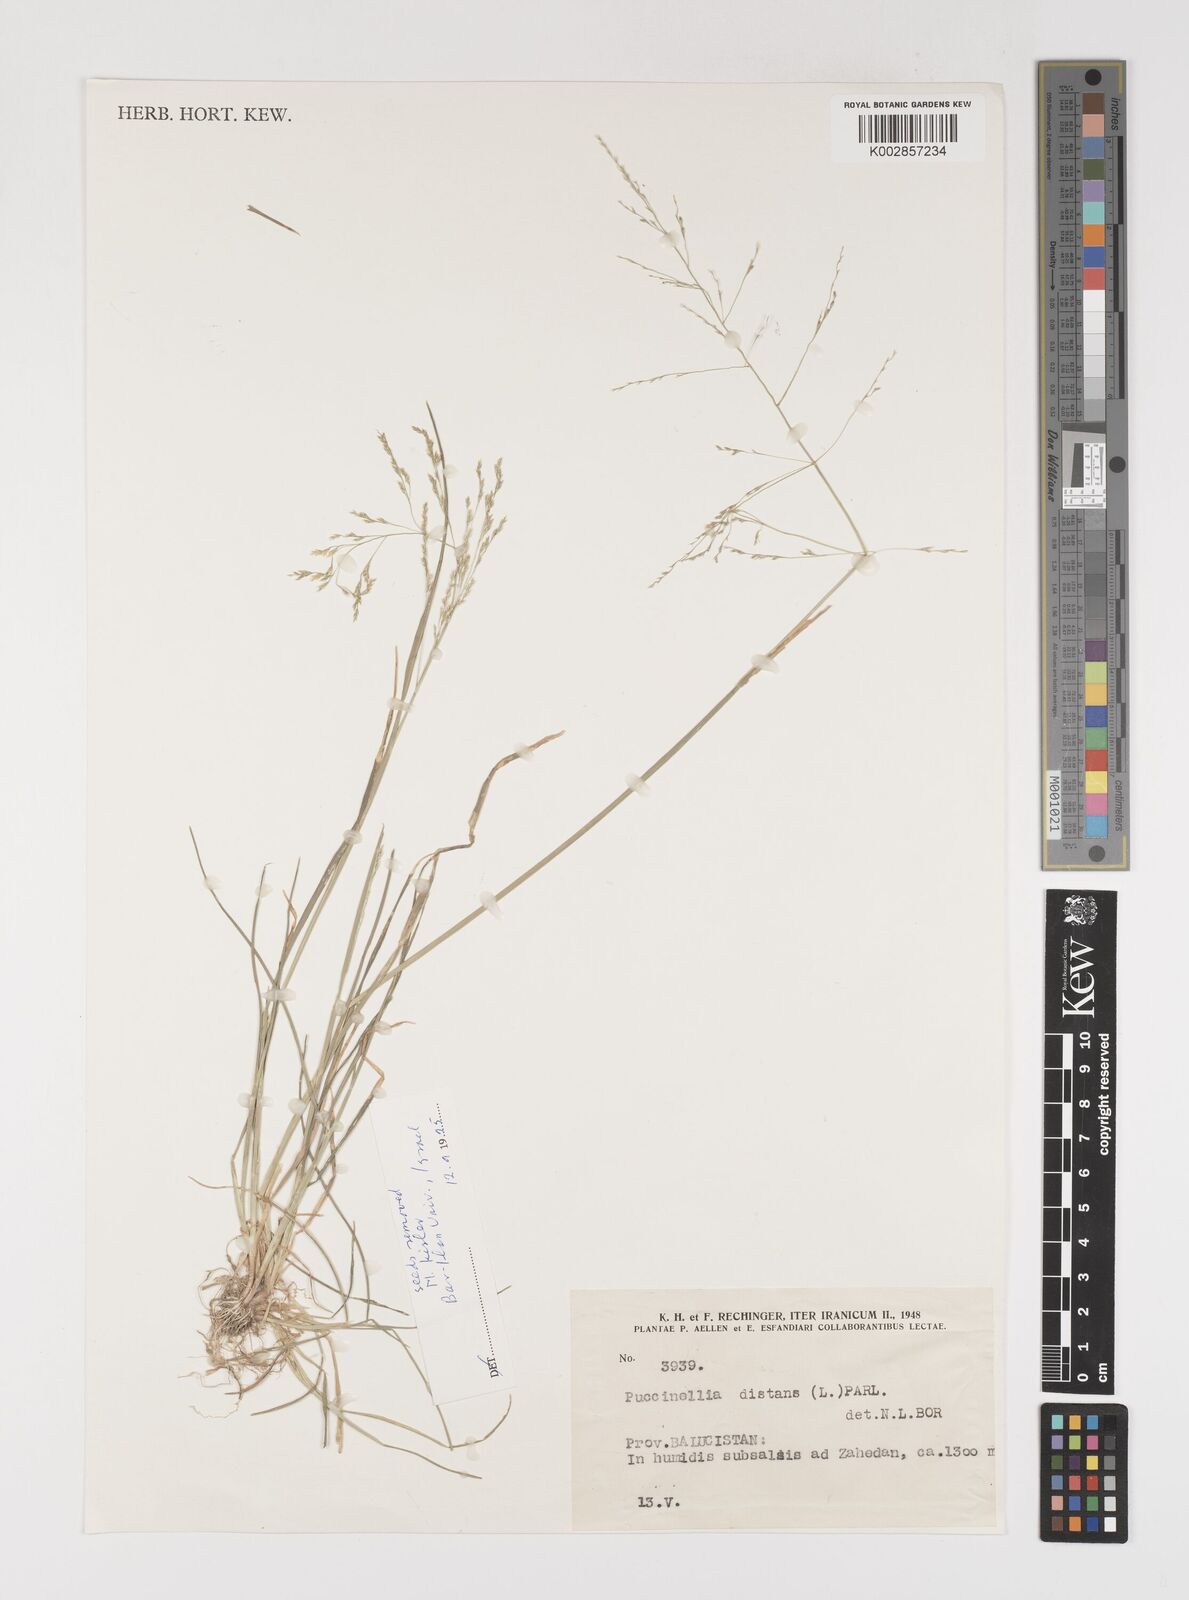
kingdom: Plantae
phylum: Tracheophyta
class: Liliopsida
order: Poales
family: Poaceae
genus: Puccinellia
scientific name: Puccinellia distans
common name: Weeping alkaligrass
